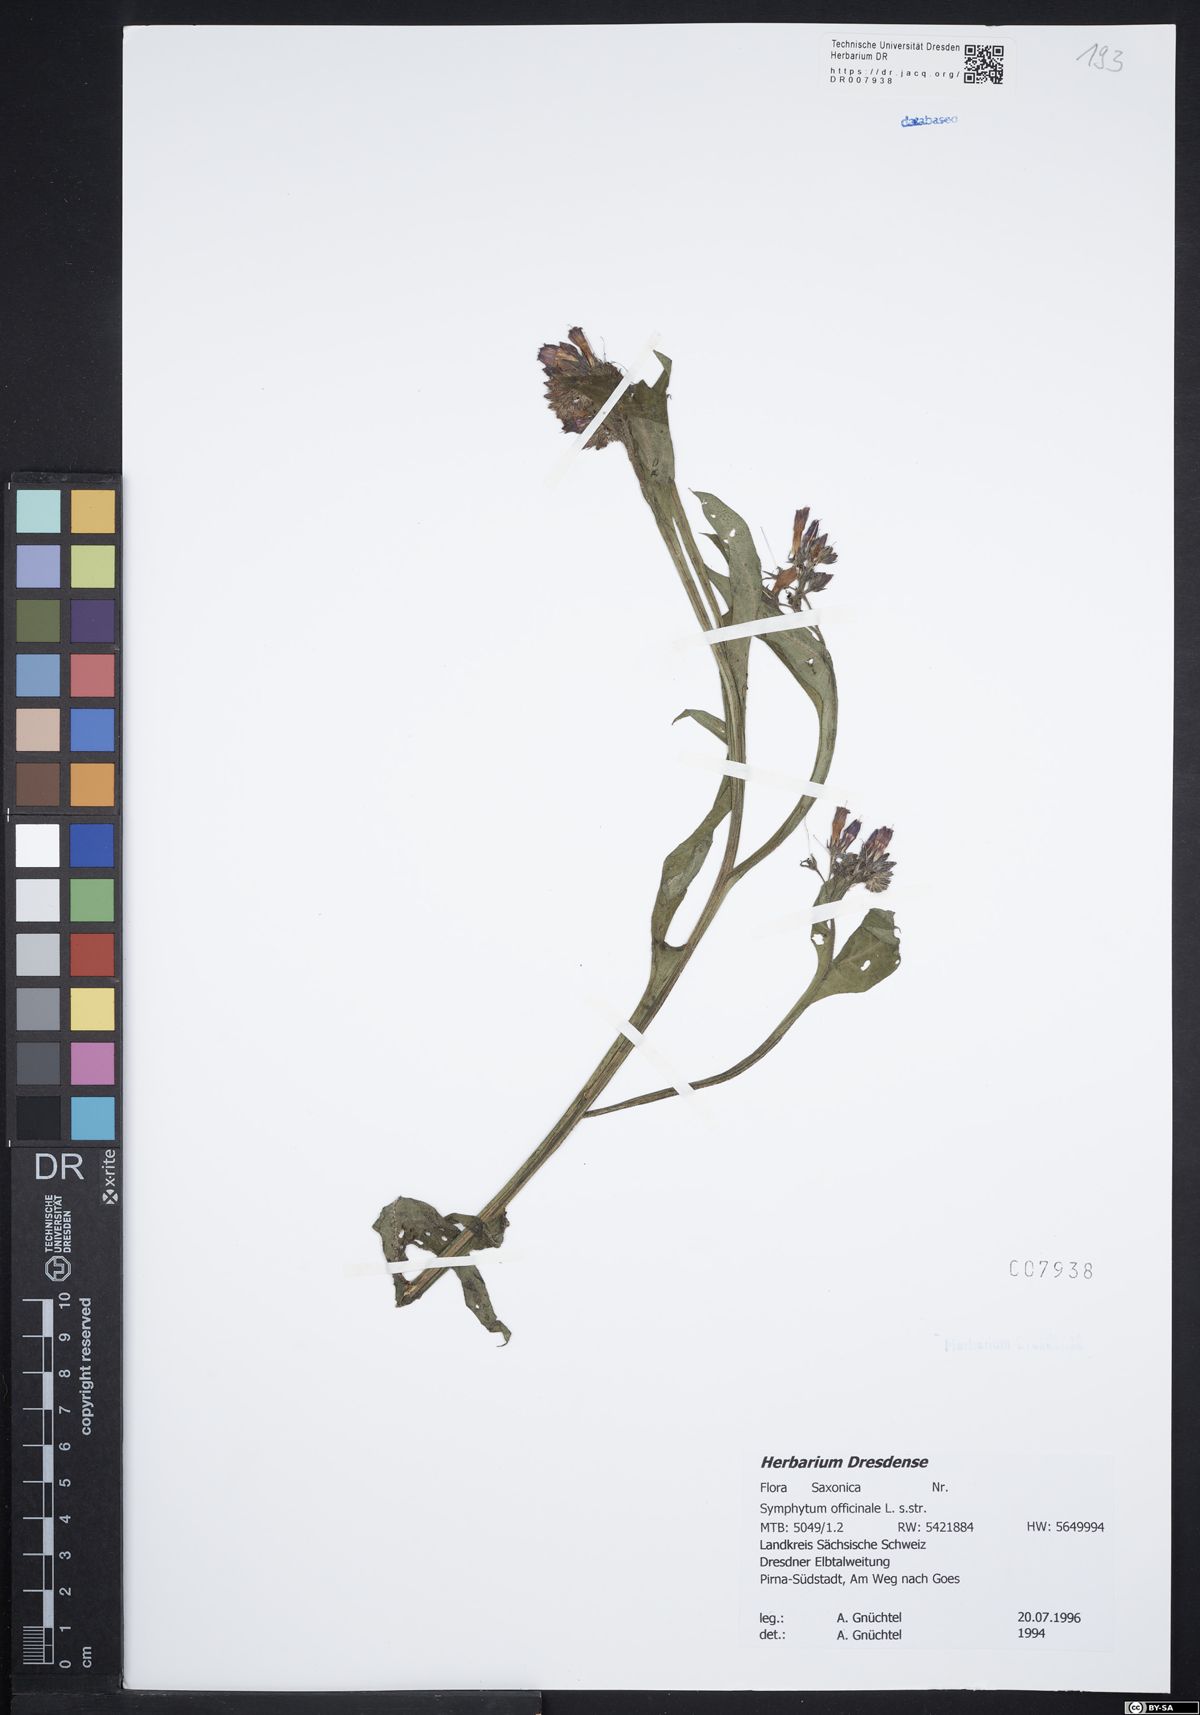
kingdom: Plantae
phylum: Tracheophyta
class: Magnoliopsida
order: Boraginales
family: Boraginaceae
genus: Symphytum
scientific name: Symphytum officinale
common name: Common comfrey
